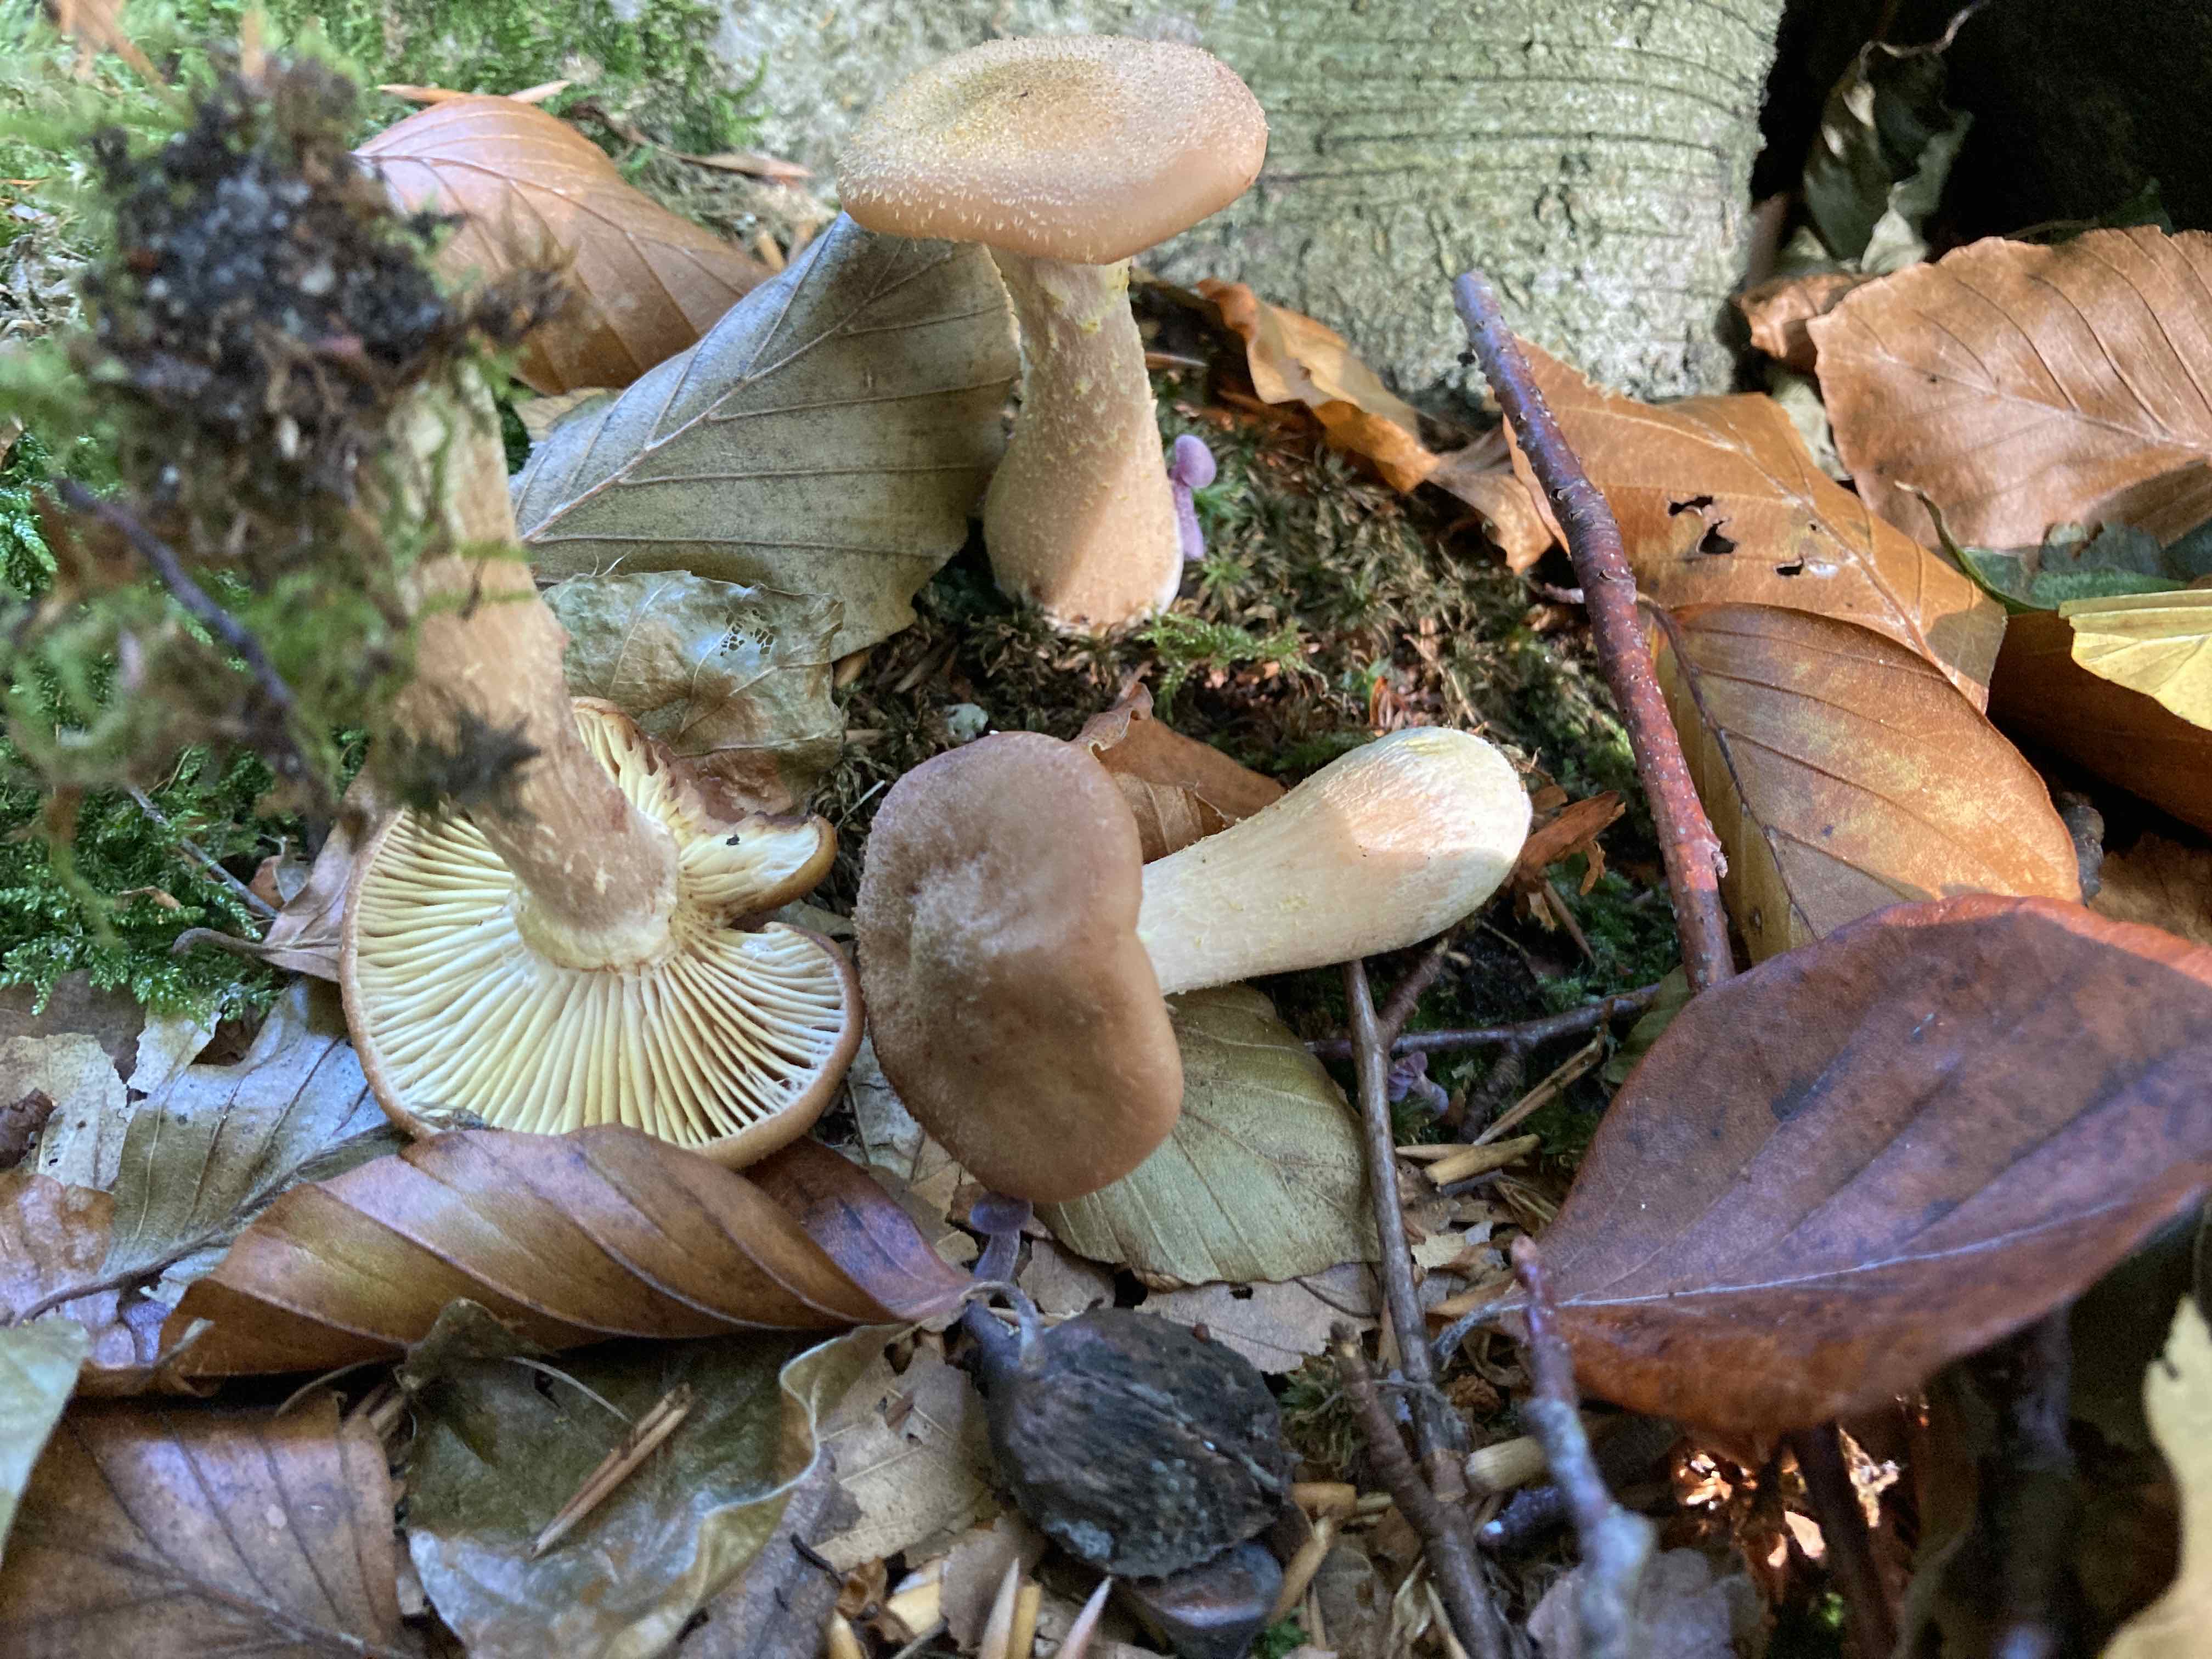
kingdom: Fungi
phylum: Basidiomycota
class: Agaricomycetes
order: Agaricales
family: Physalacriaceae
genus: Armillaria
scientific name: Armillaria lutea
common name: køllestokket honningsvamp
